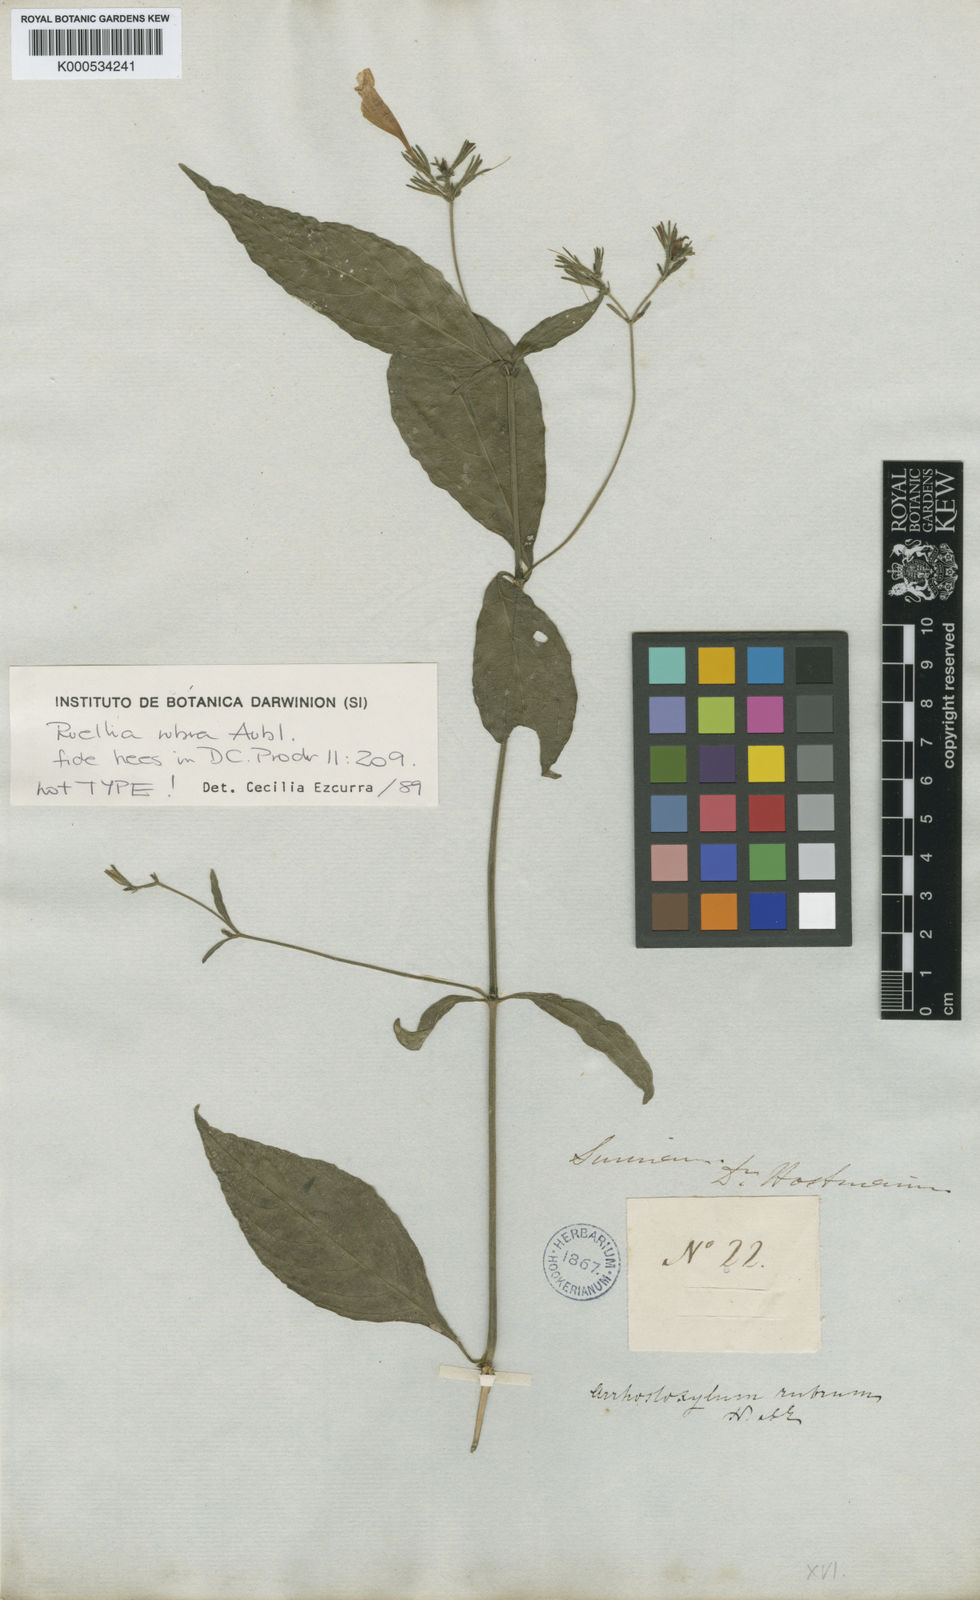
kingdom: Plantae
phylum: Tracheophyta
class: Magnoliopsida
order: Lamiales
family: Acanthaceae
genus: Ruellia
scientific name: Ruellia rubra
